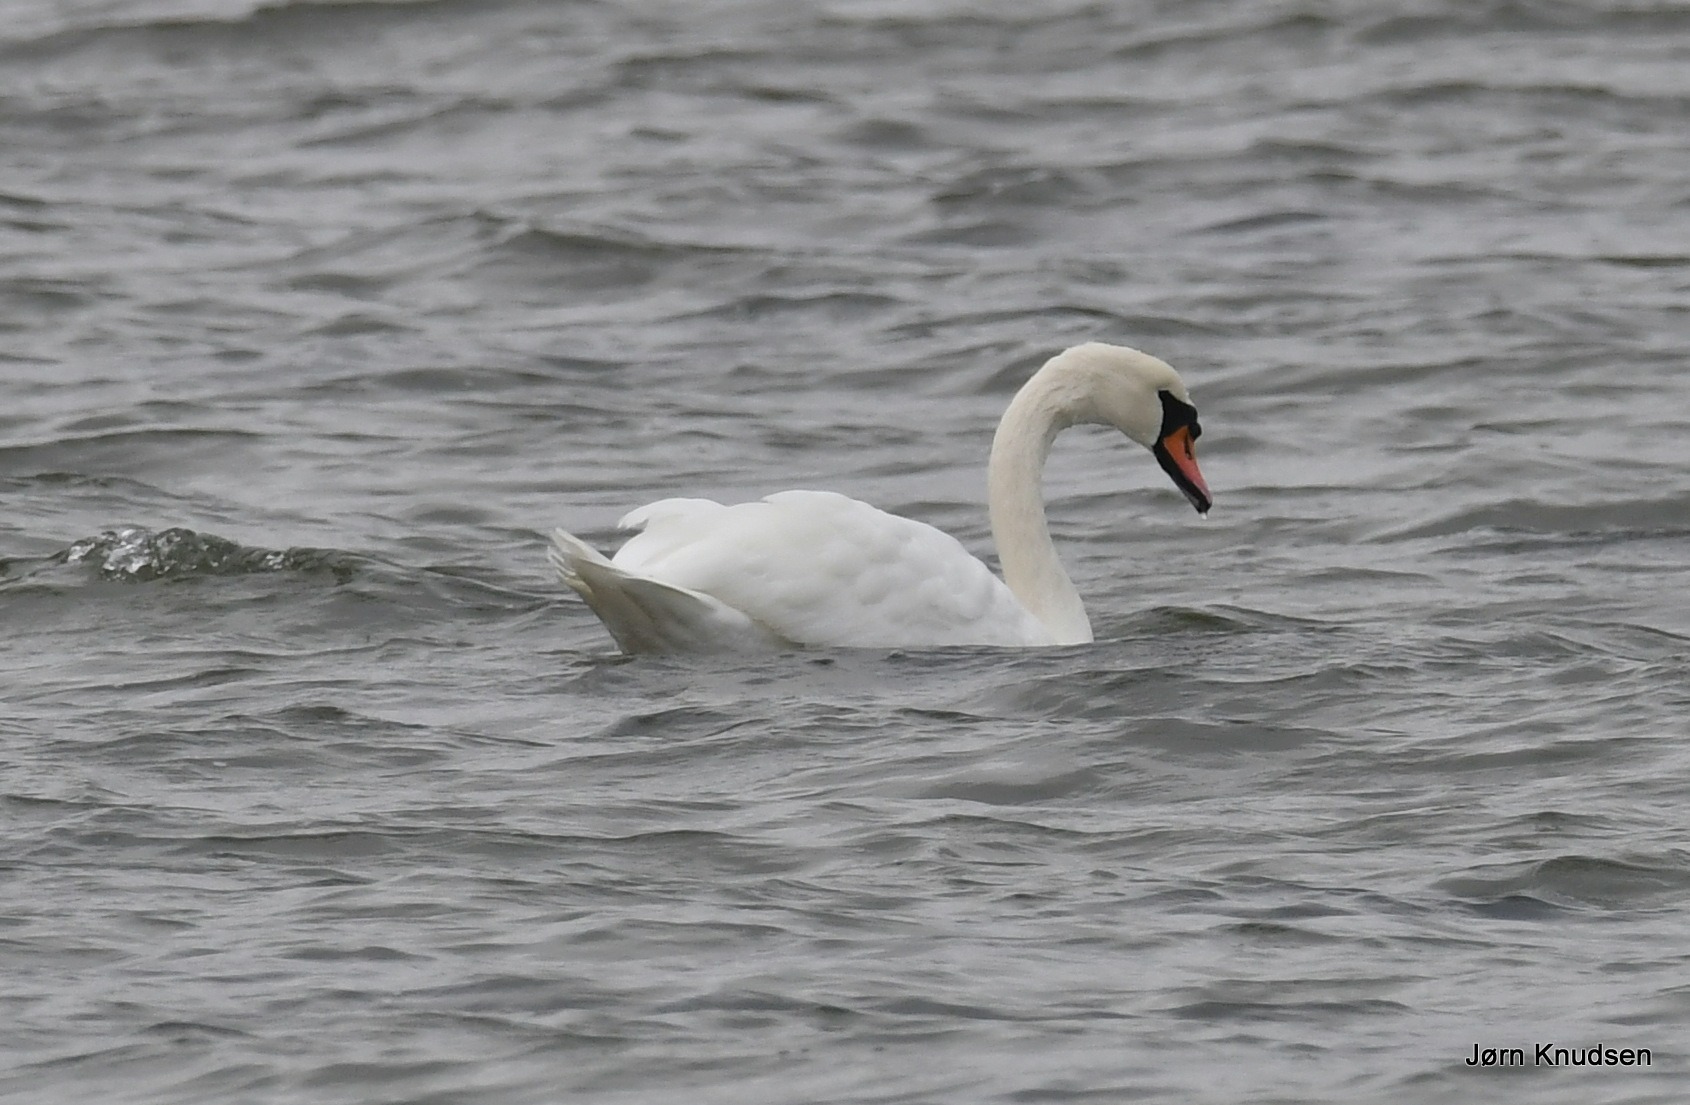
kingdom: Animalia
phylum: Chordata
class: Aves
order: Anseriformes
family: Anatidae
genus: Cygnus
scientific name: Cygnus olor
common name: Knopsvane
